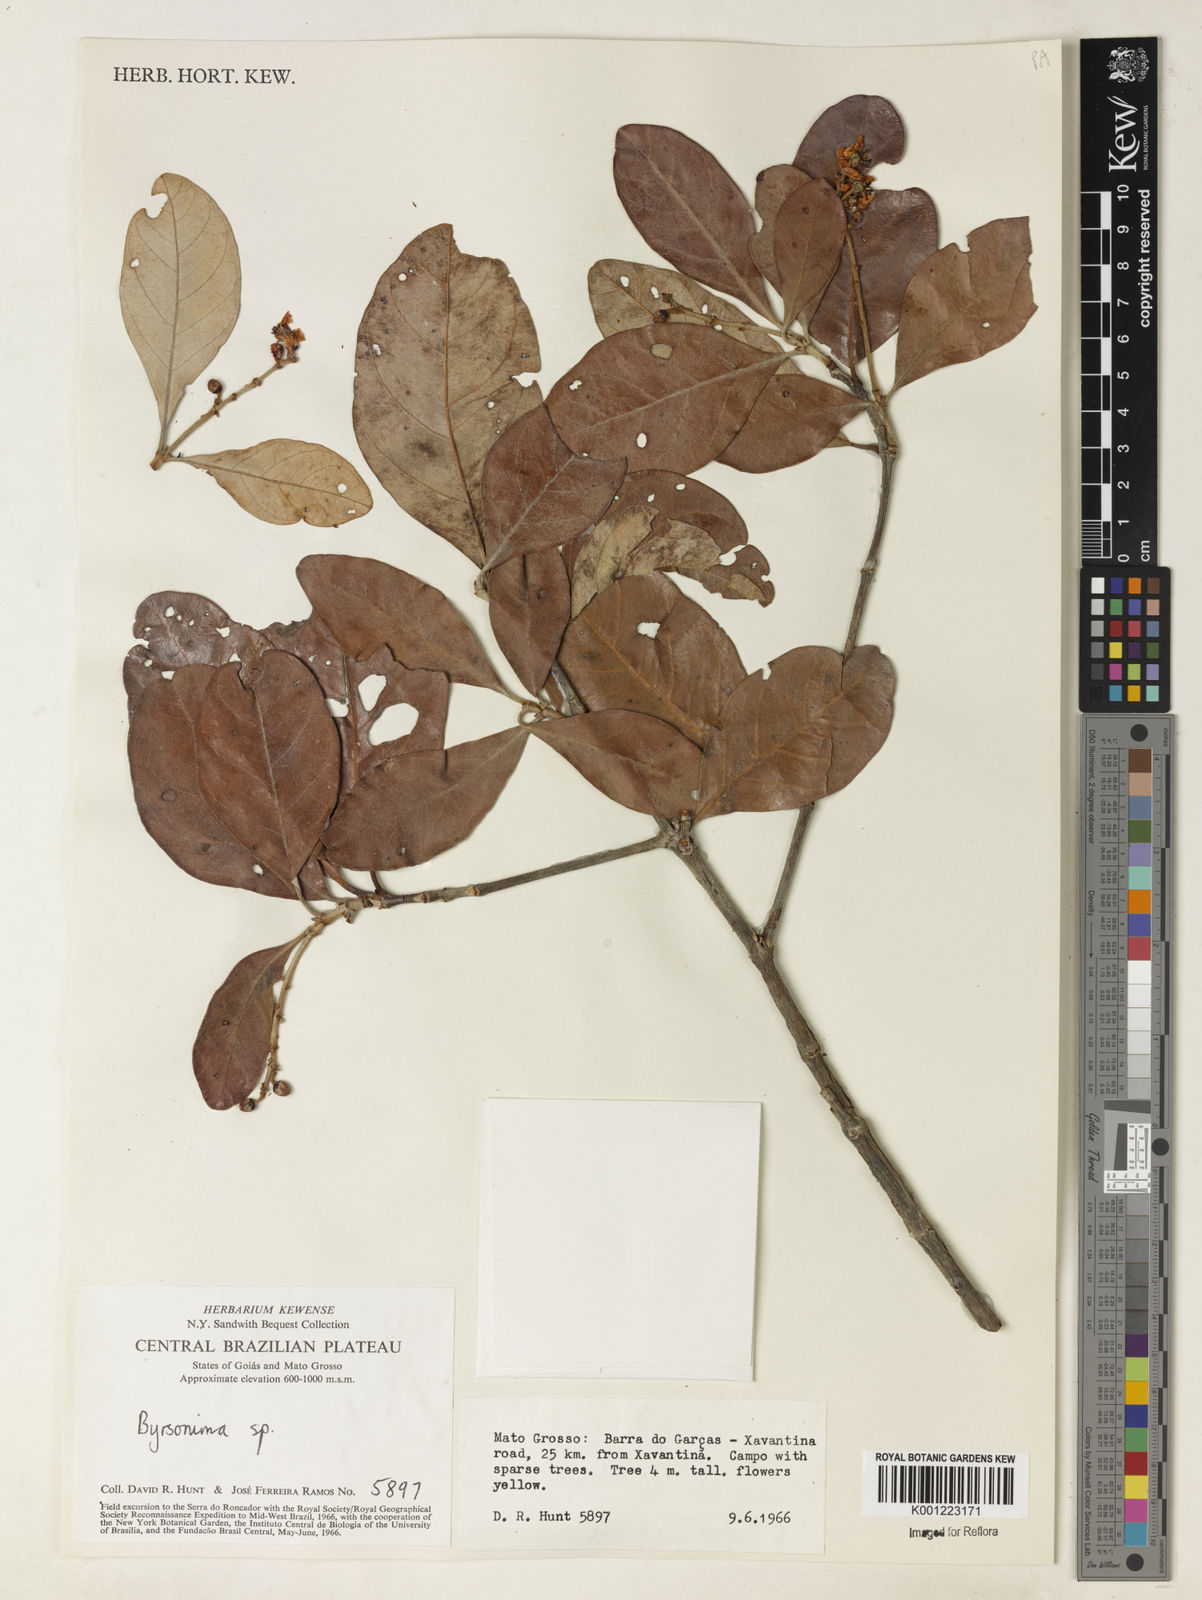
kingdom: Plantae
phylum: Tracheophyta
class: Magnoliopsida
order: Malpighiales
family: Malpighiaceae
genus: Byrsonima
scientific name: Byrsonima
